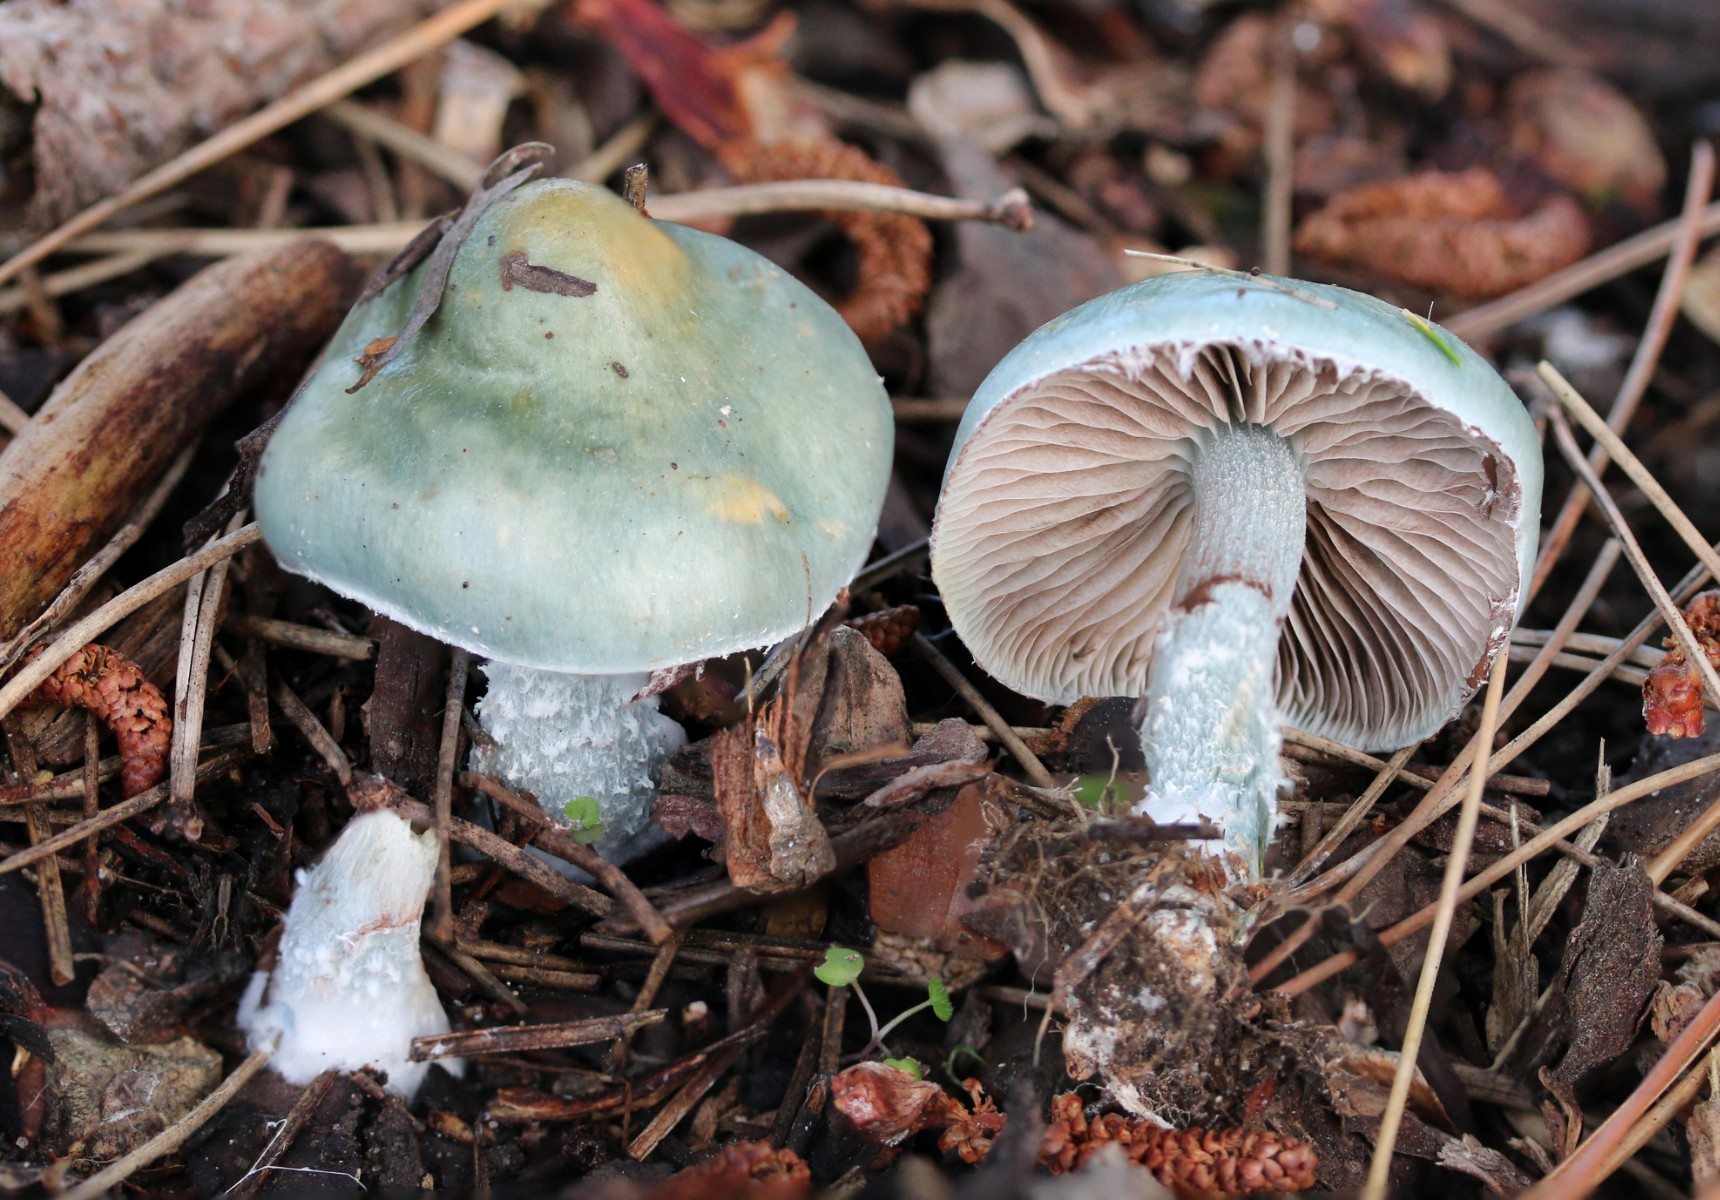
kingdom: Fungi
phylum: Basidiomycota
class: Agaricomycetes
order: Agaricales
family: Strophariaceae
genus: Stropharia
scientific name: Stropharia cyanea
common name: blågrøn bredblad
